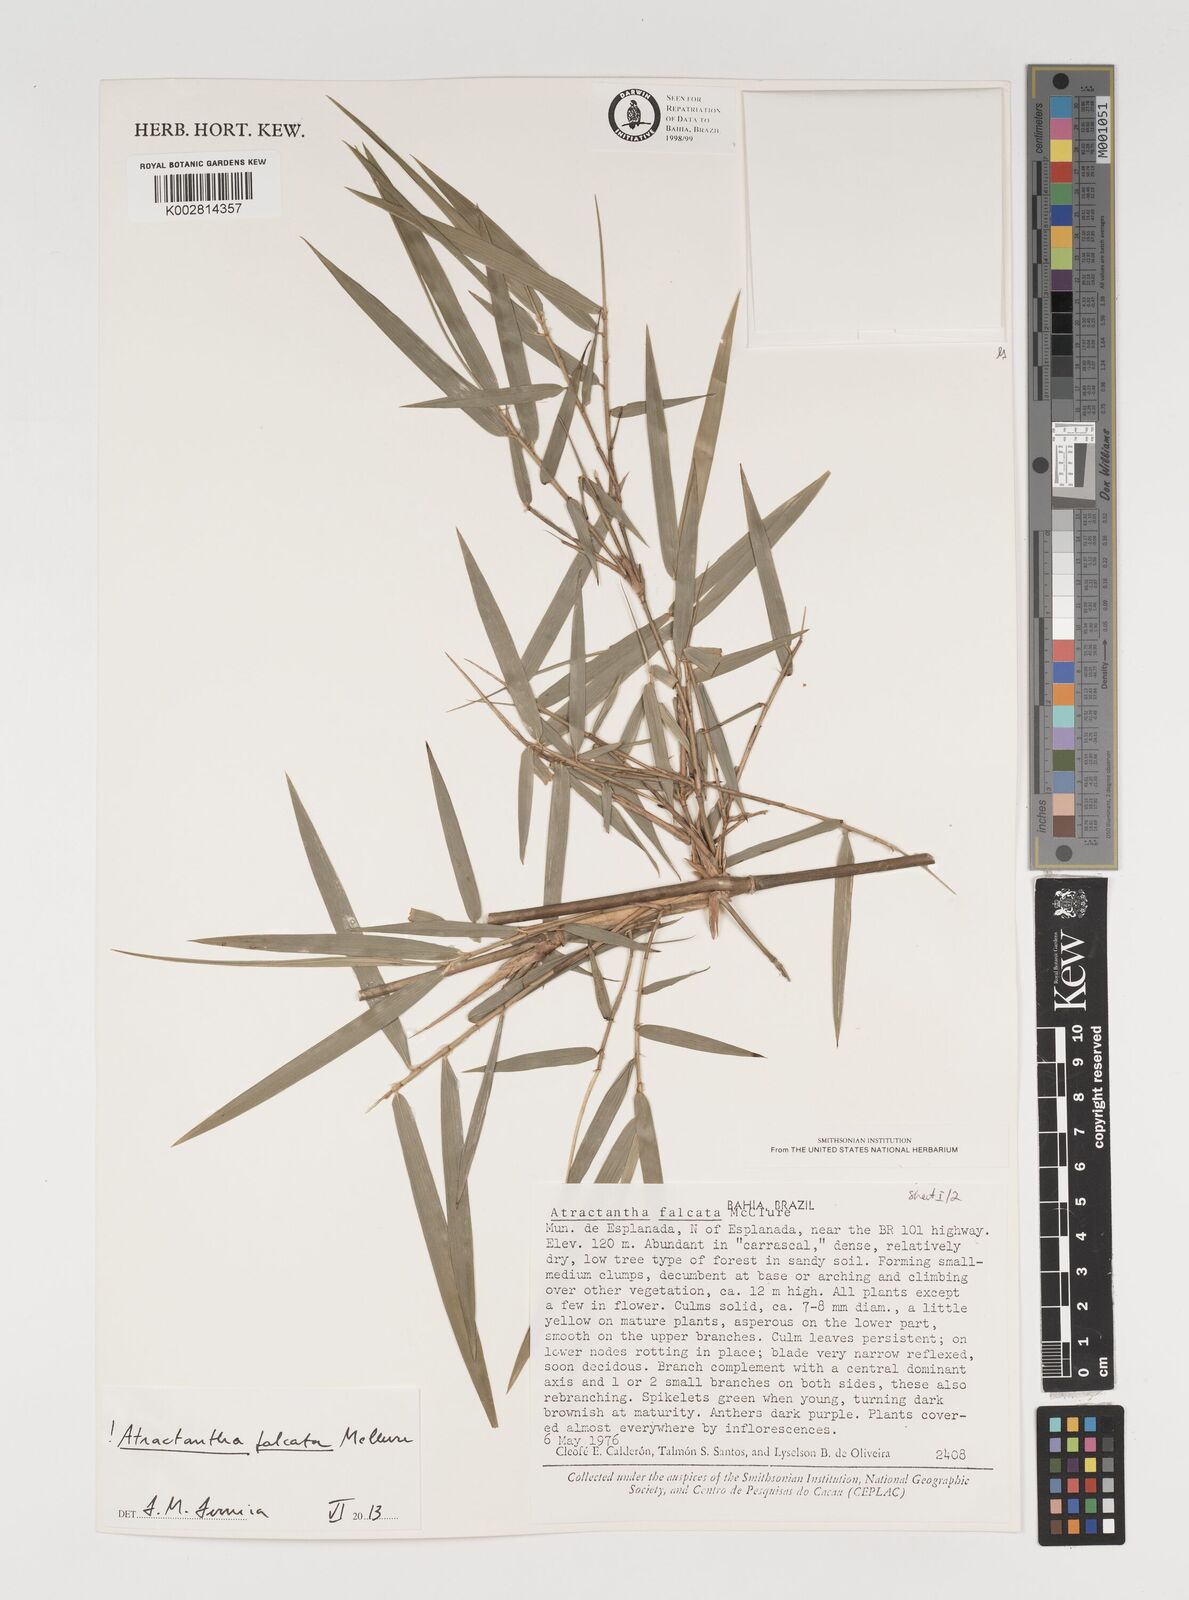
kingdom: Plantae
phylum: Tracheophyta
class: Liliopsida
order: Poales
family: Poaceae
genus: Atractantha
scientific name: Atractantha falcata
